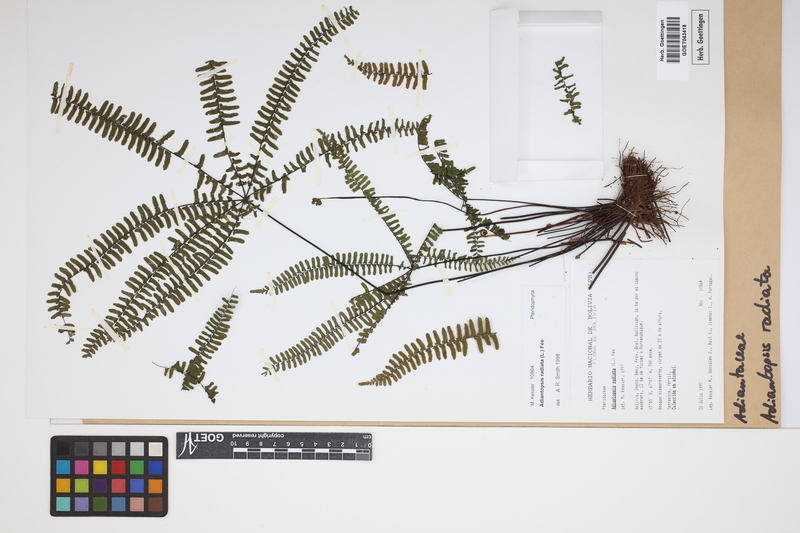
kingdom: Plantae
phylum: Tracheophyta
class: Polypodiopsida
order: Polypodiales
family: Pteridaceae
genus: Adiantopsis
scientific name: Adiantopsis radiata
